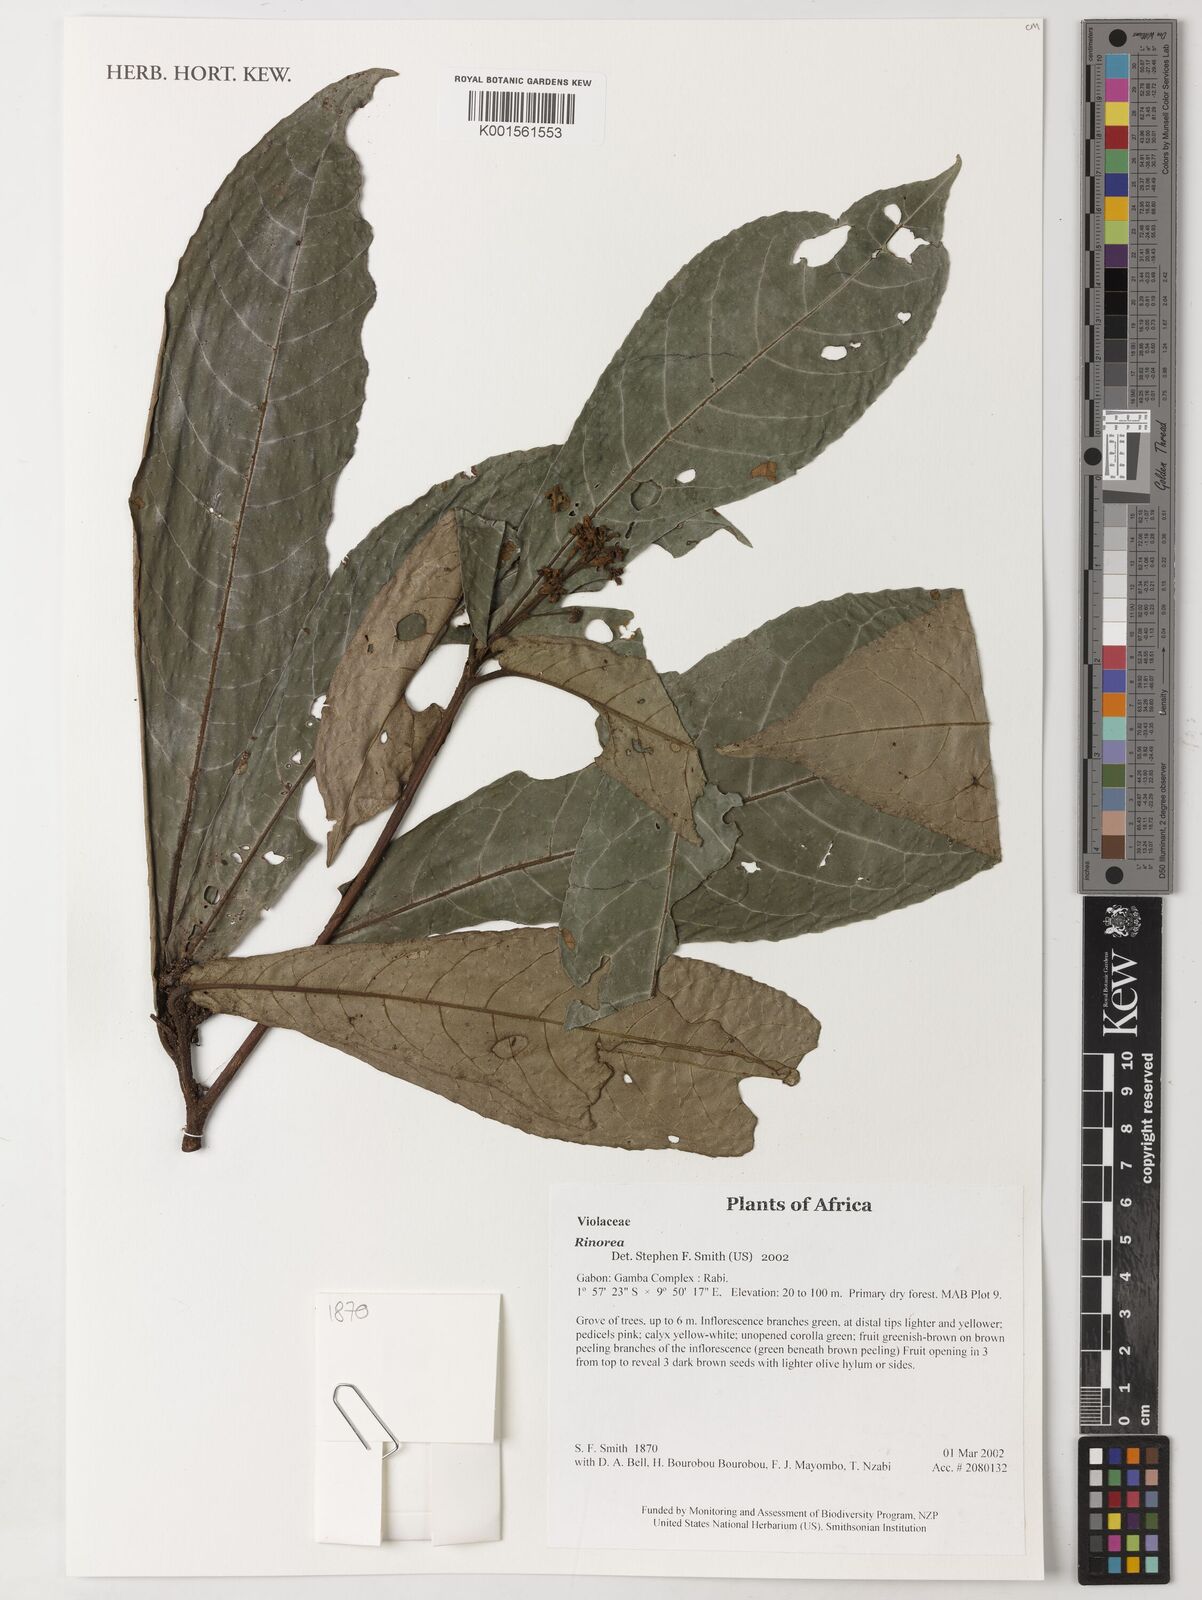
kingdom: Plantae
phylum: Tracheophyta
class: Magnoliopsida
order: Malpighiales
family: Violaceae
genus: Rinorea
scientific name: Rinorea
